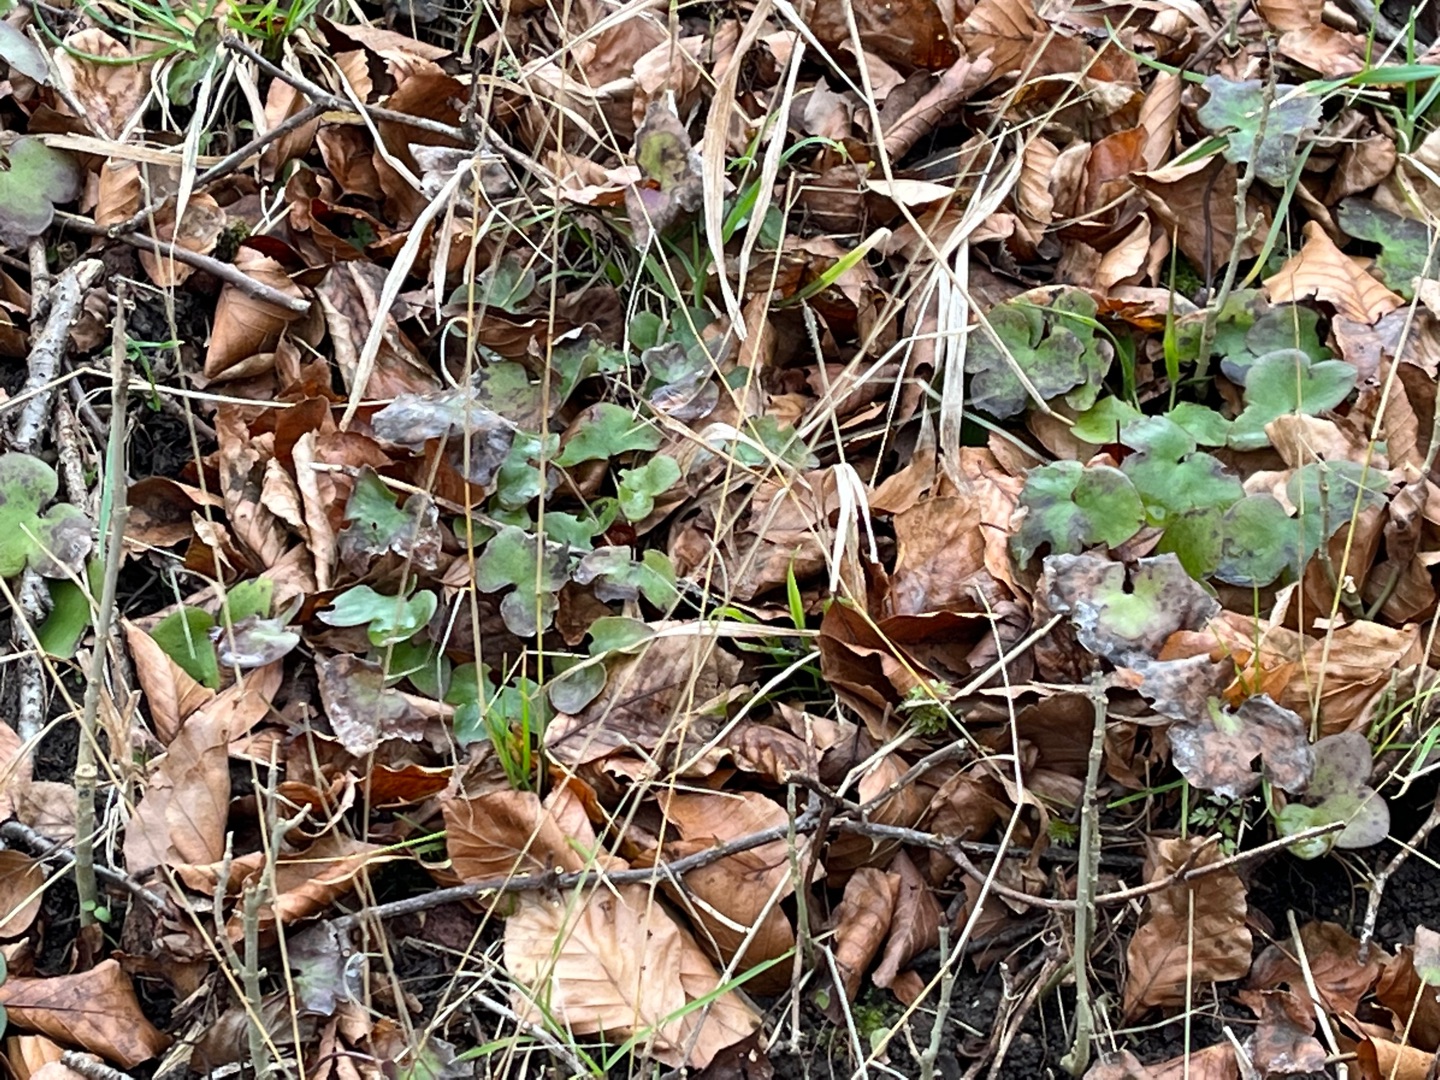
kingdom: Plantae
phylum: Tracheophyta
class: Magnoliopsida
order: Ranunculales
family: Ranunculaceae
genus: Hepatica
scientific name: Hepatica nobilis
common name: Blå anemone
